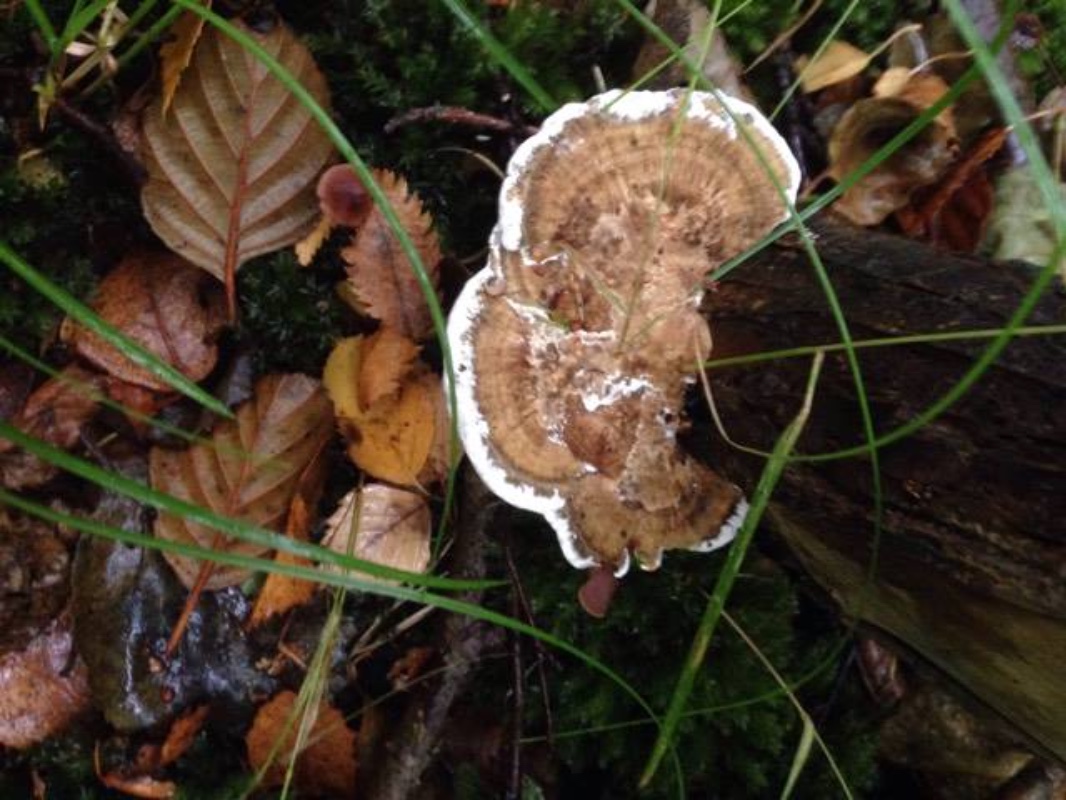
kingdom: Fungi
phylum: Basidiomycota
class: Agaricomycetes
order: Polyporales
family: Polyporaceae
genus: Daedaleopsis
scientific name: Daedaleopsis confragosa
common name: rødmende læderporesvamp
